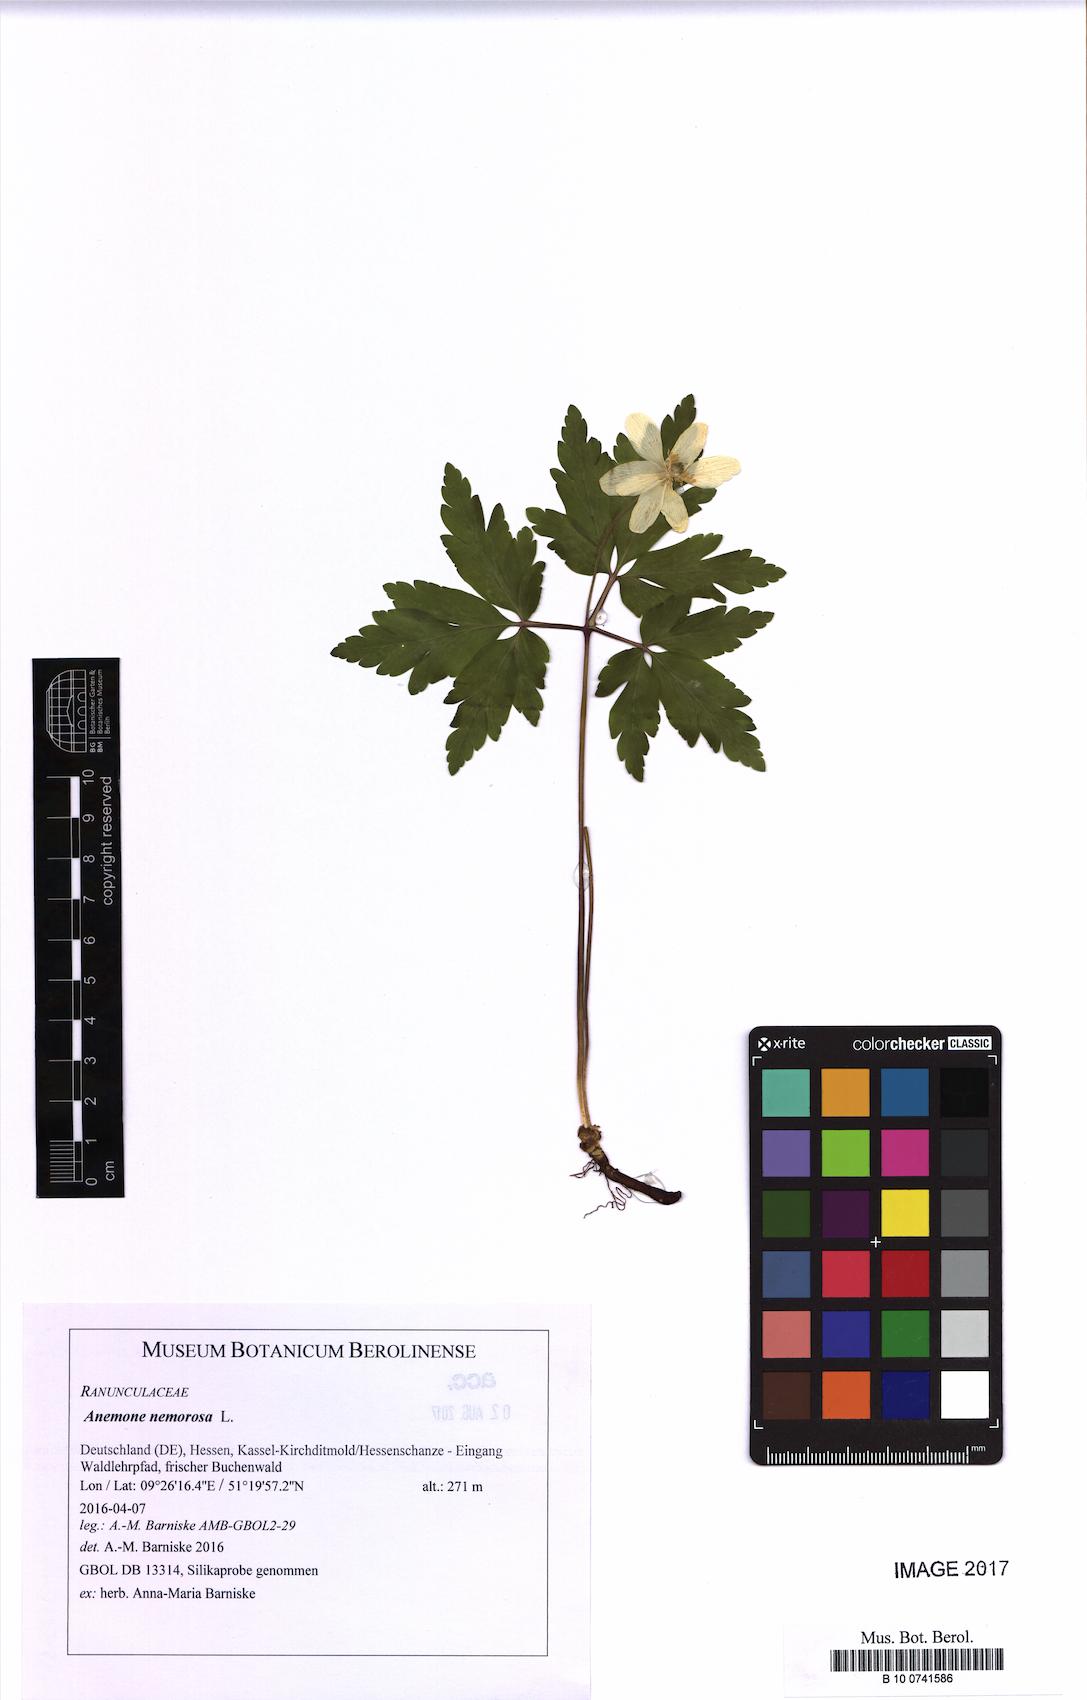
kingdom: Plantae
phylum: Tracheophyta
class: Magnoliopsida
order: Ranunculales
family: Ranunculaceae
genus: Anemone
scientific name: Anemone nemorosa
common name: Wood anemone
